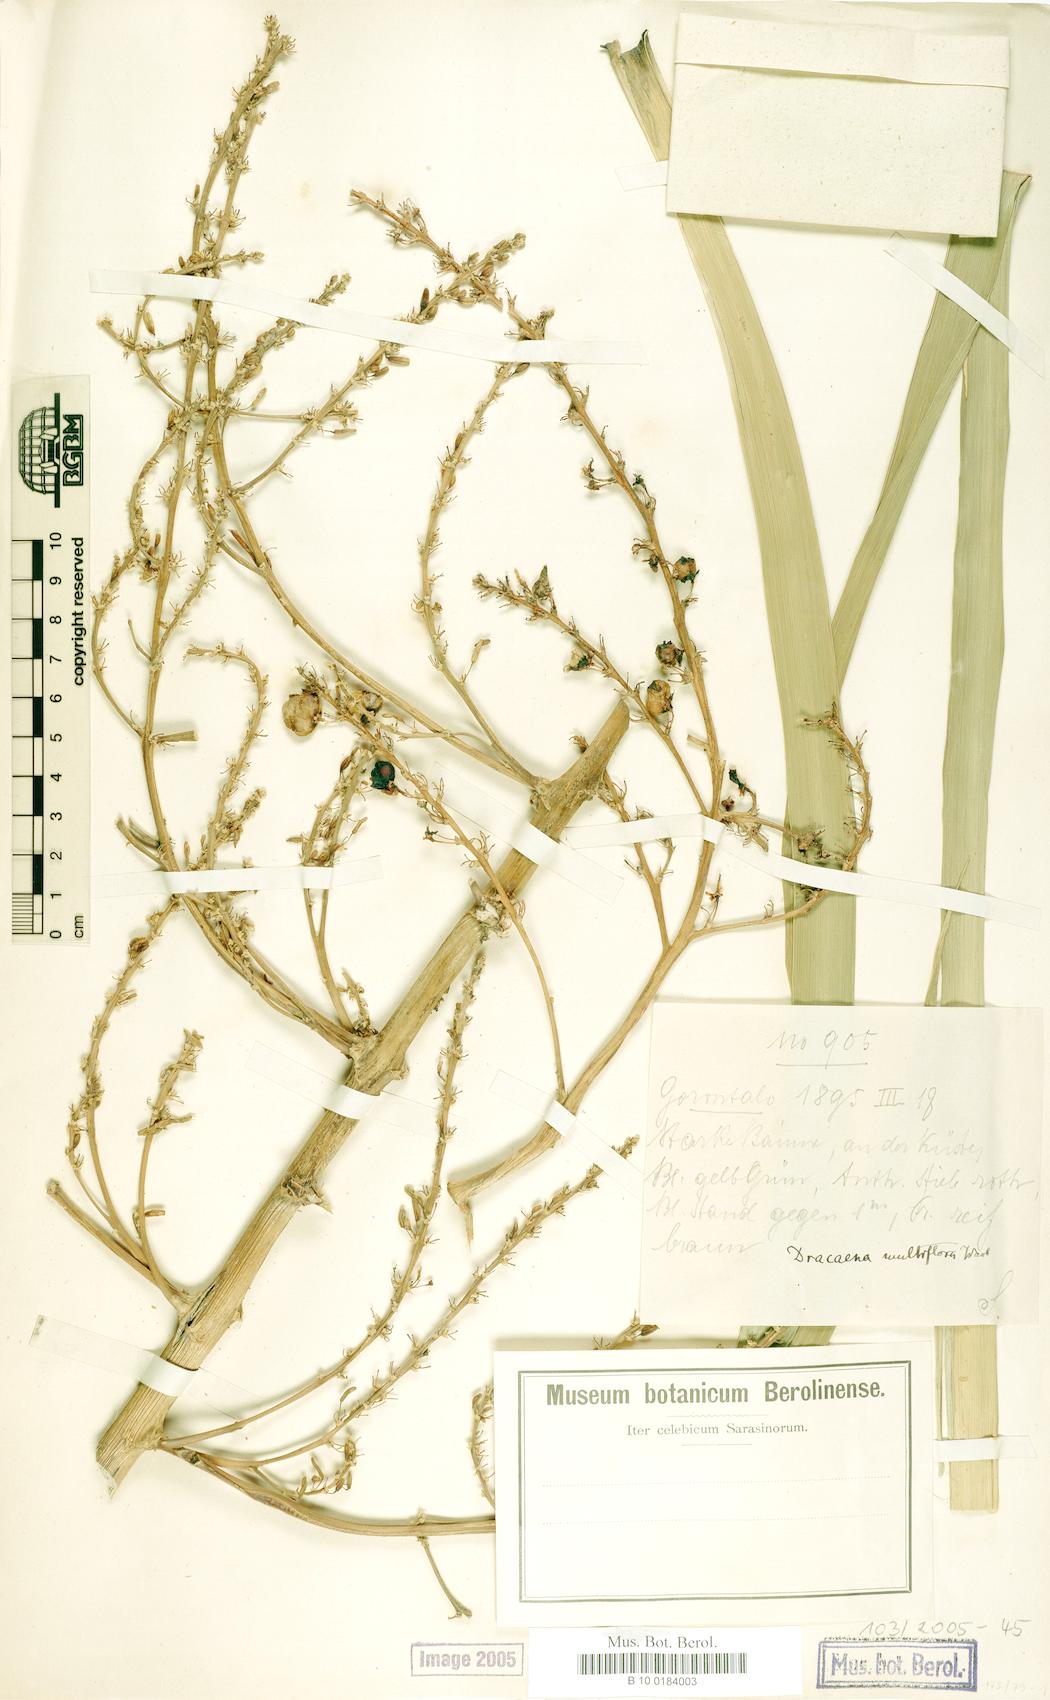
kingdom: Plantae
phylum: Tracheophyta
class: Liliopsida
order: Asparagales
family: Asparagaceae
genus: Dracaena
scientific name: Dracaena multiflora
